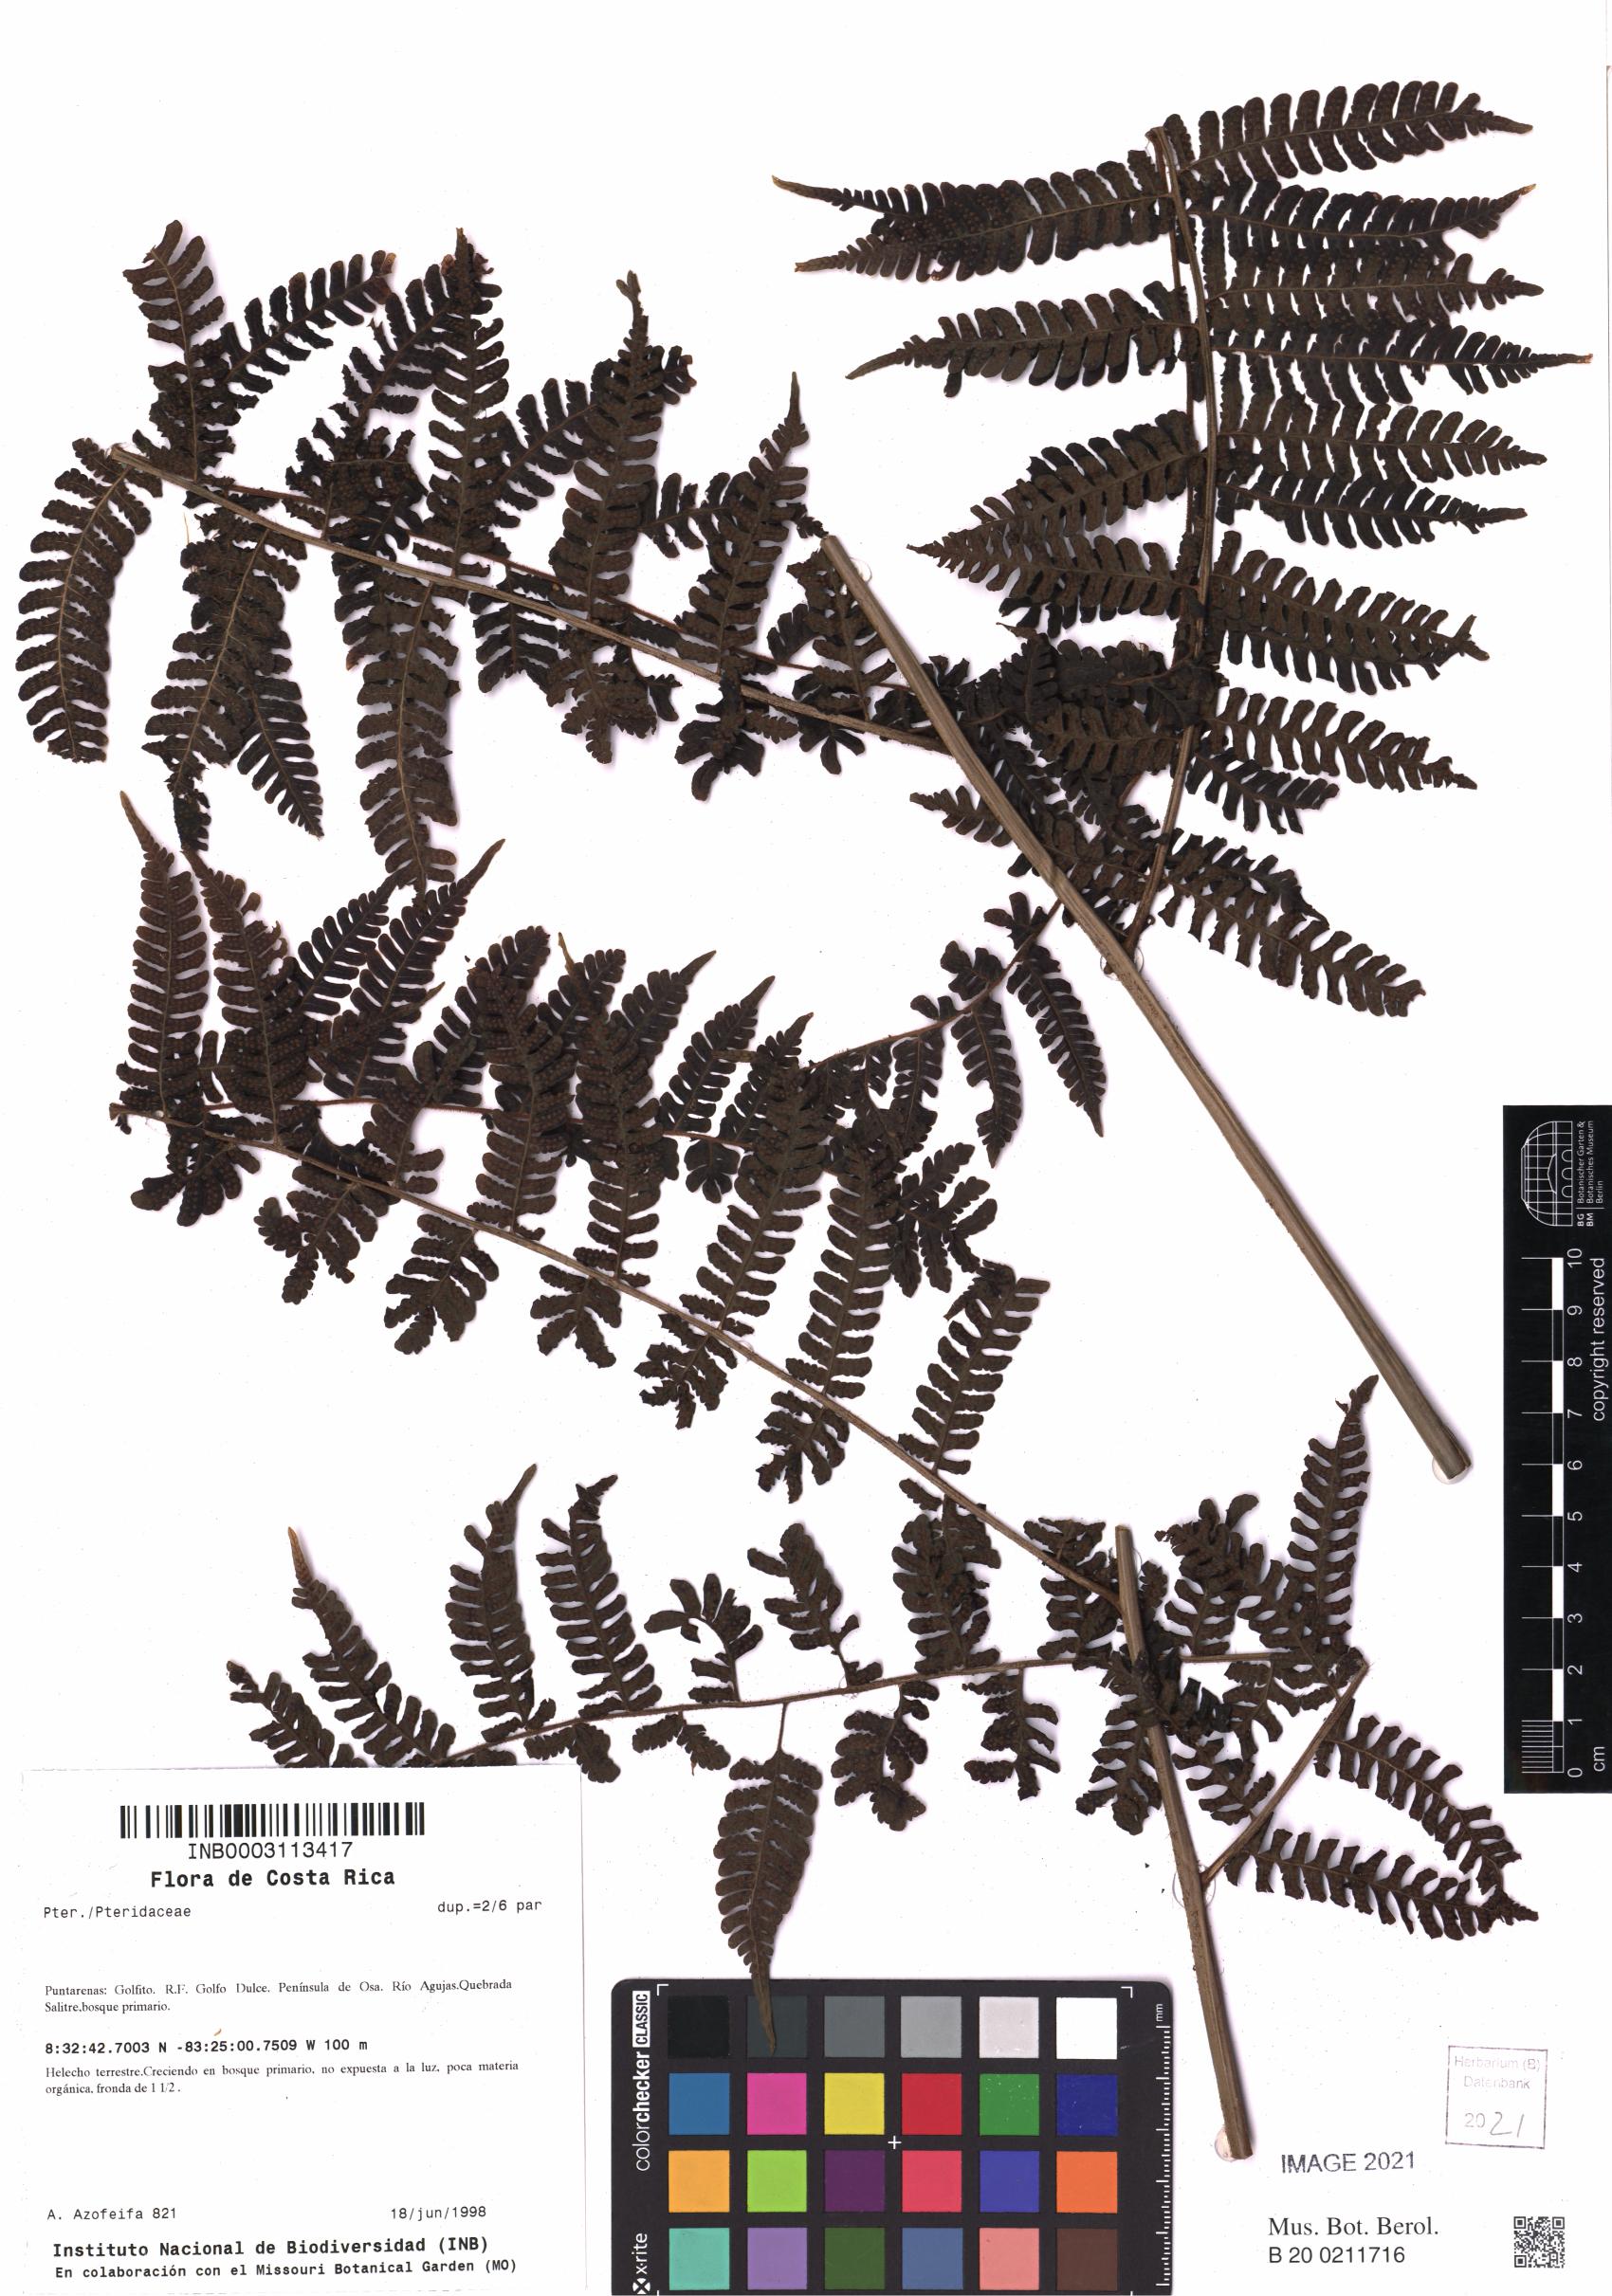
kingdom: Plantae
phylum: Tracheophyta
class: Polypodiopsida
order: Polypodiales
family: Pteridaceae
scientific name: Pteridaceae
